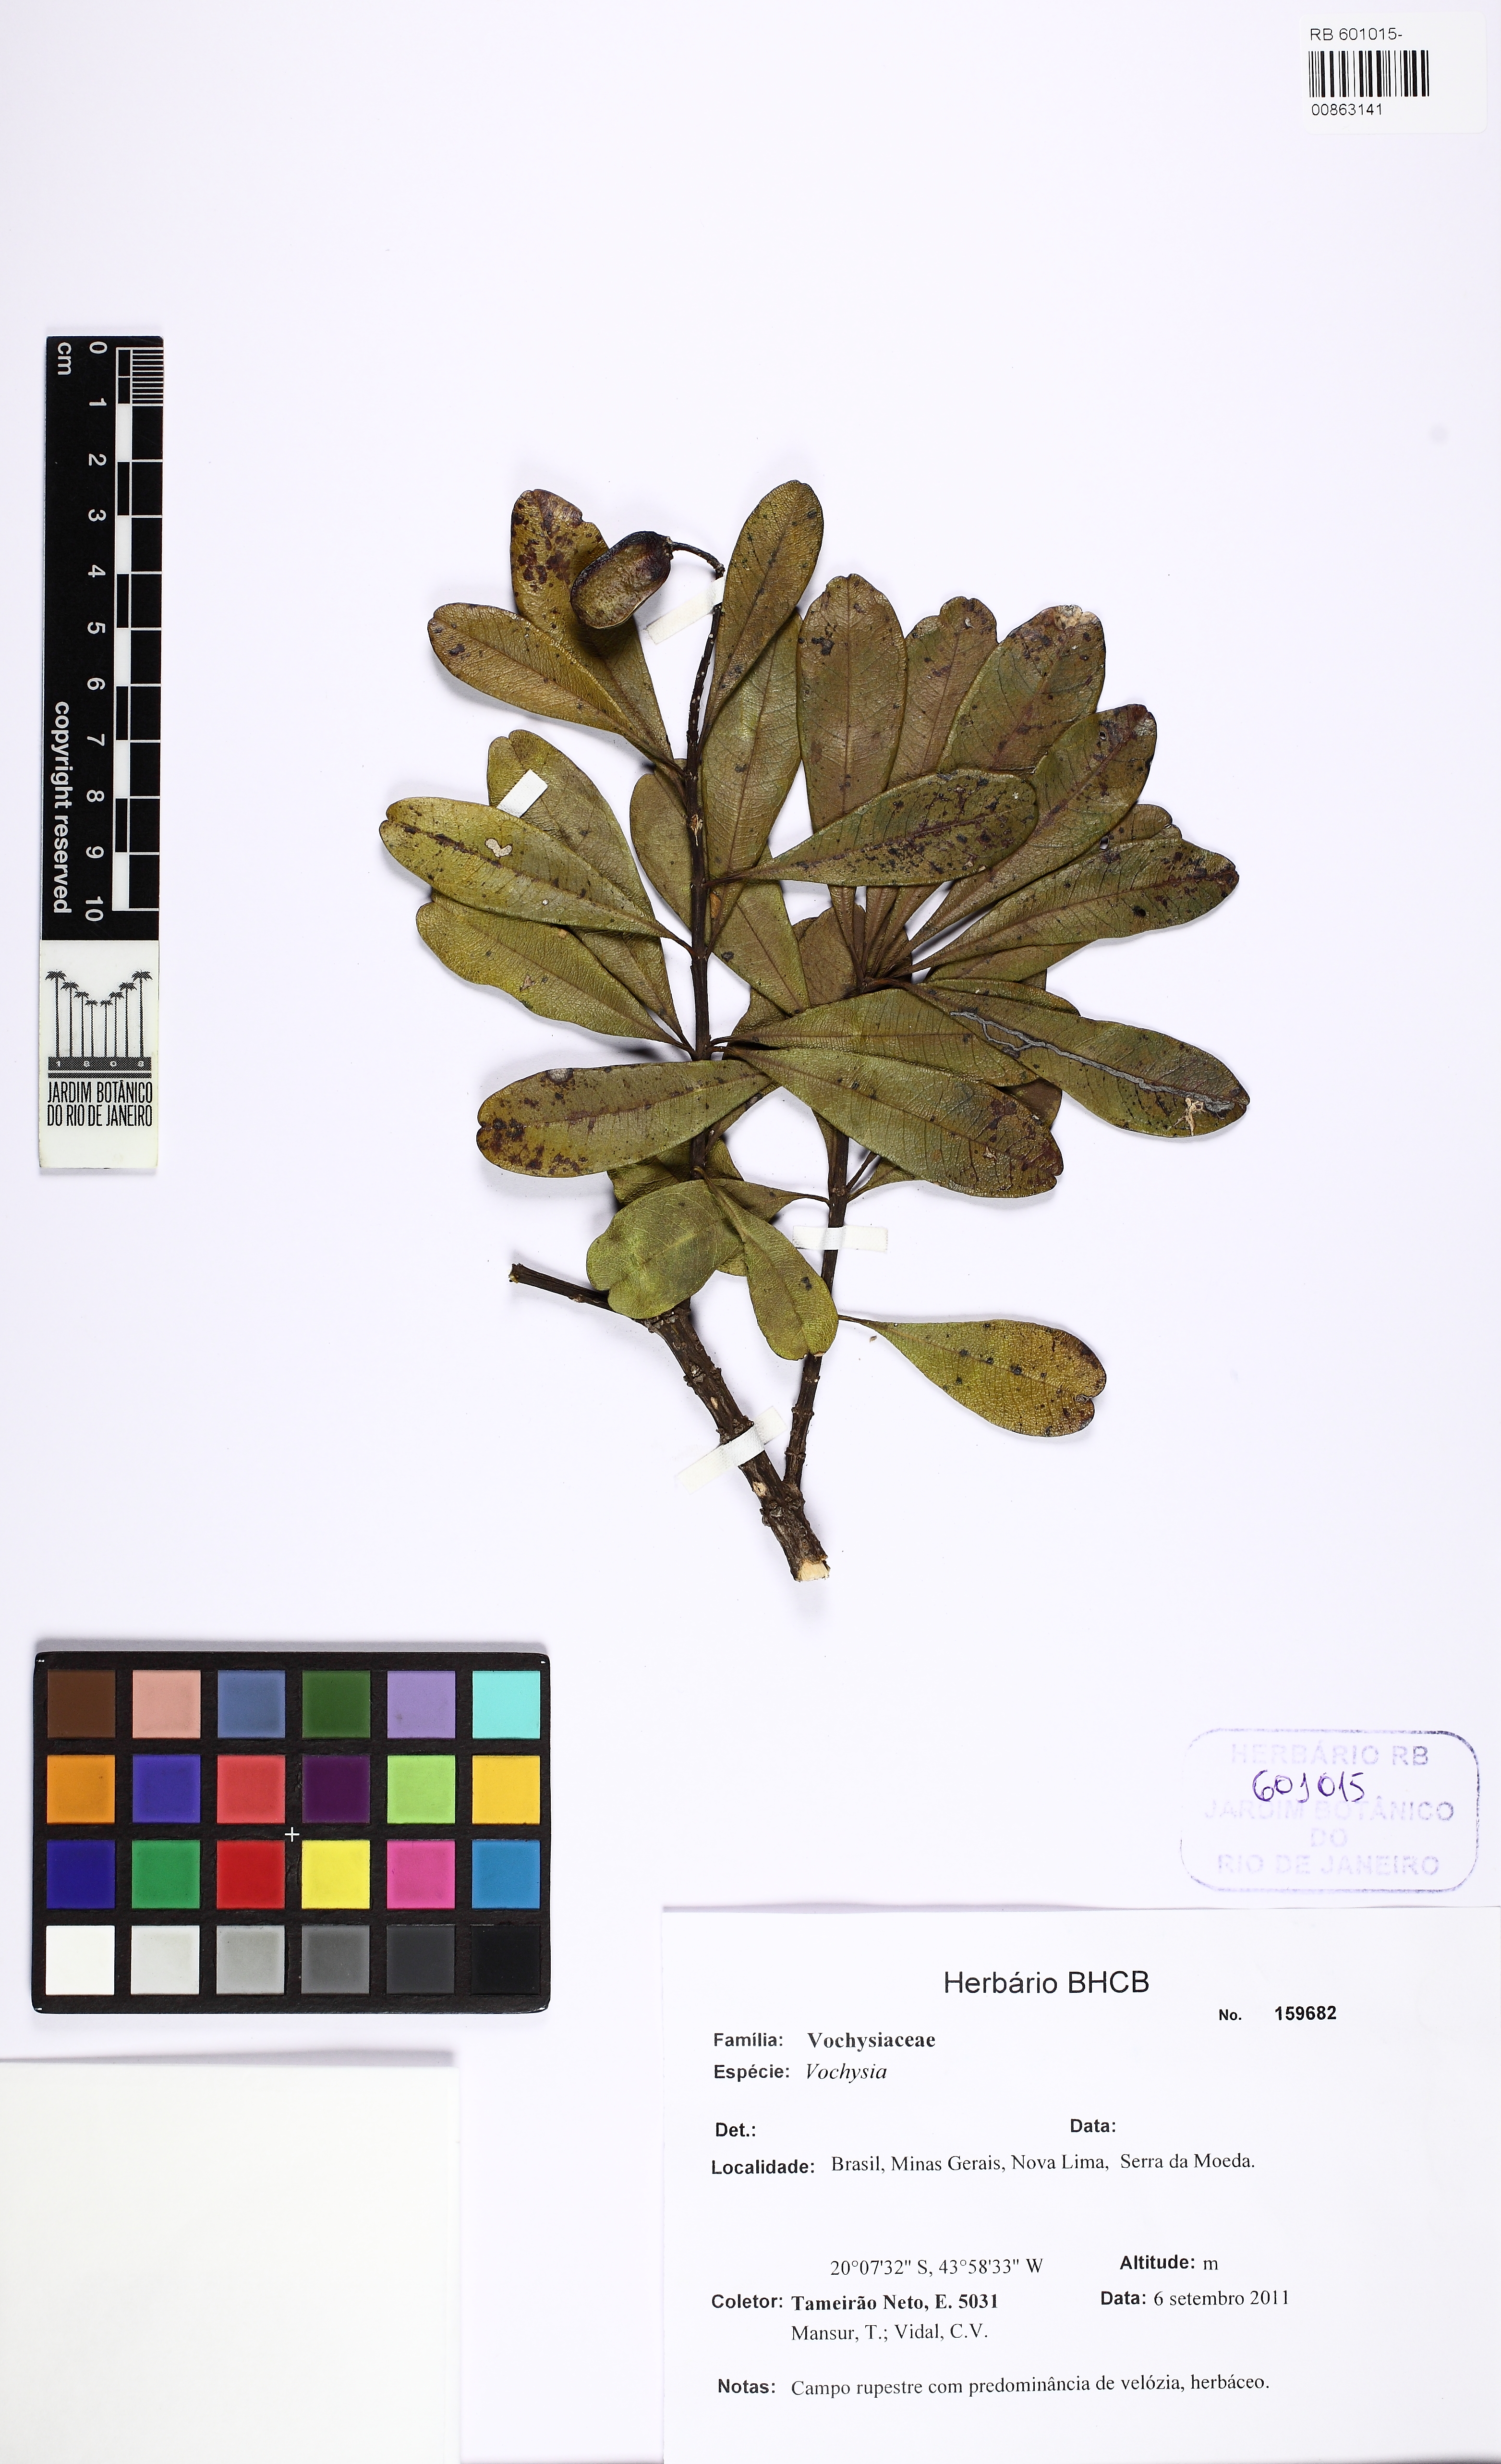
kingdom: Plantae
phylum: Tracheophyta
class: Magnoliopsida
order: Myrtales
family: Vochysiaceae
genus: Vochysia
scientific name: Vochysia
